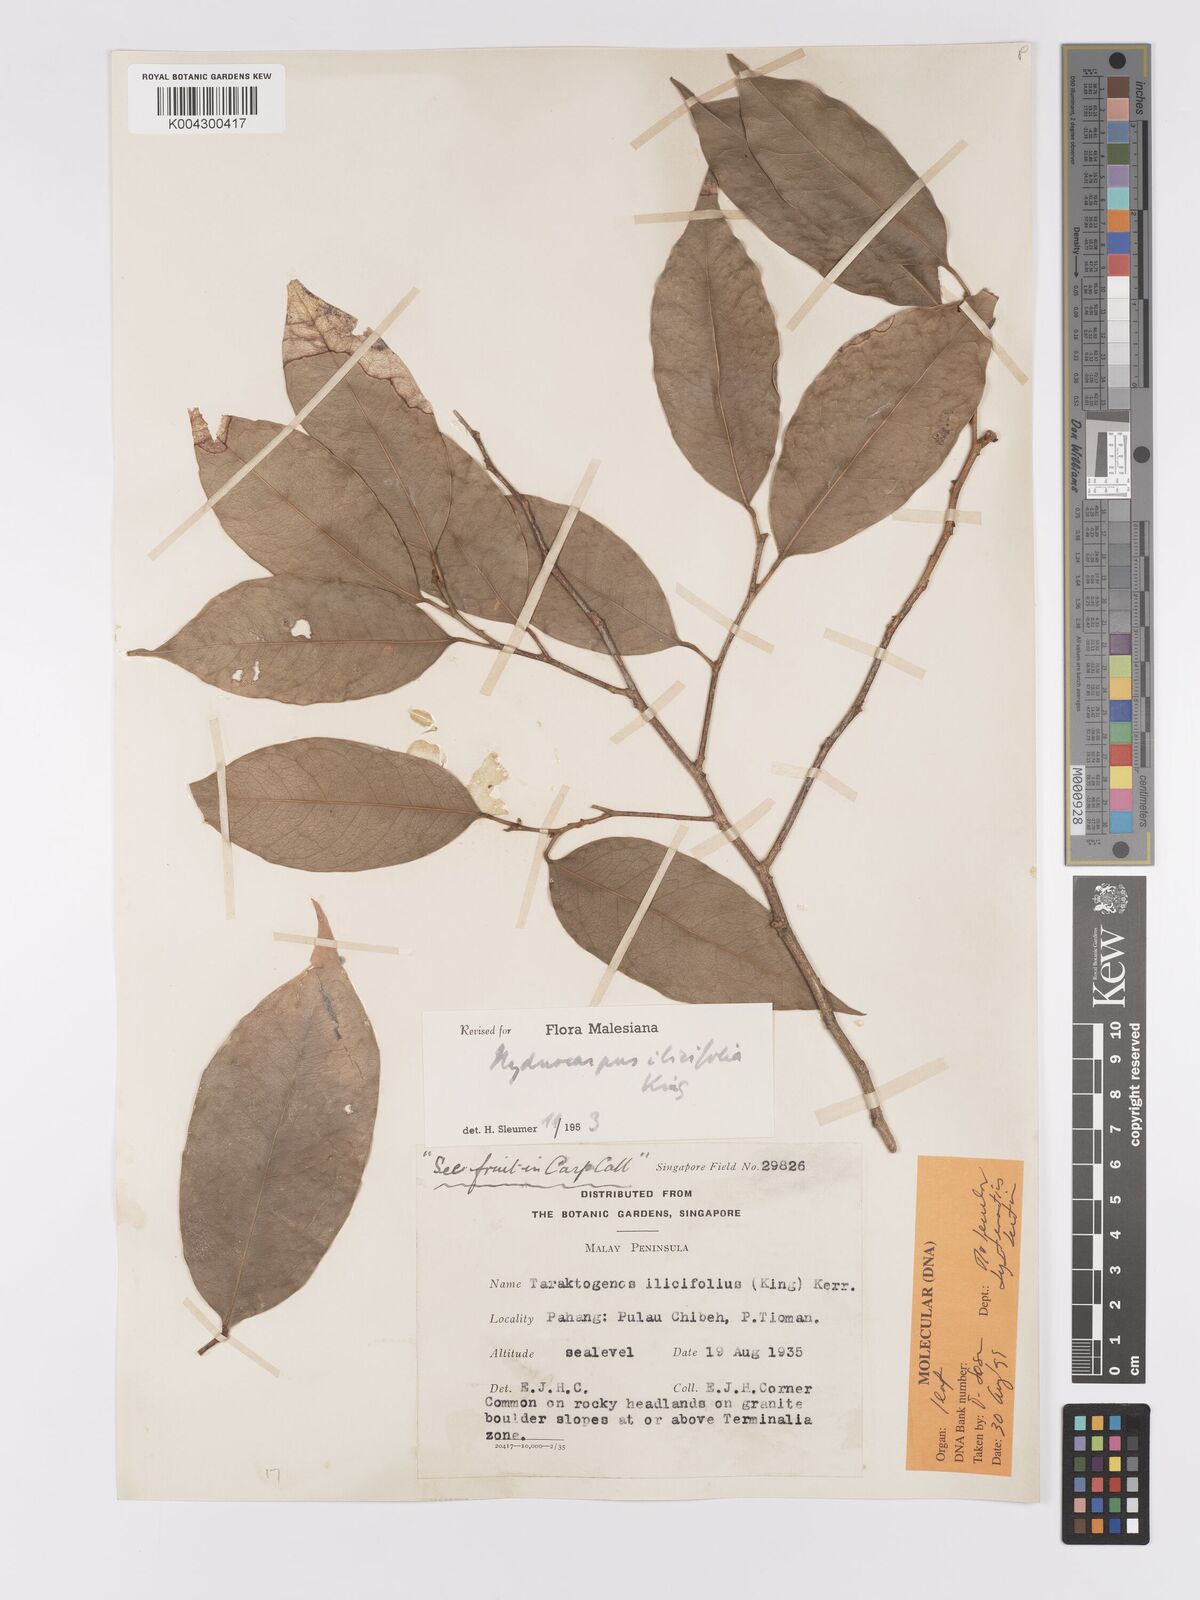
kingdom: Plantae
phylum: Tracheophyta
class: Magnoliopsida
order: Malpighiales
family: Achariaceae
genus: Hydnocarpus
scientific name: Hydnocarpus ilicifolius
